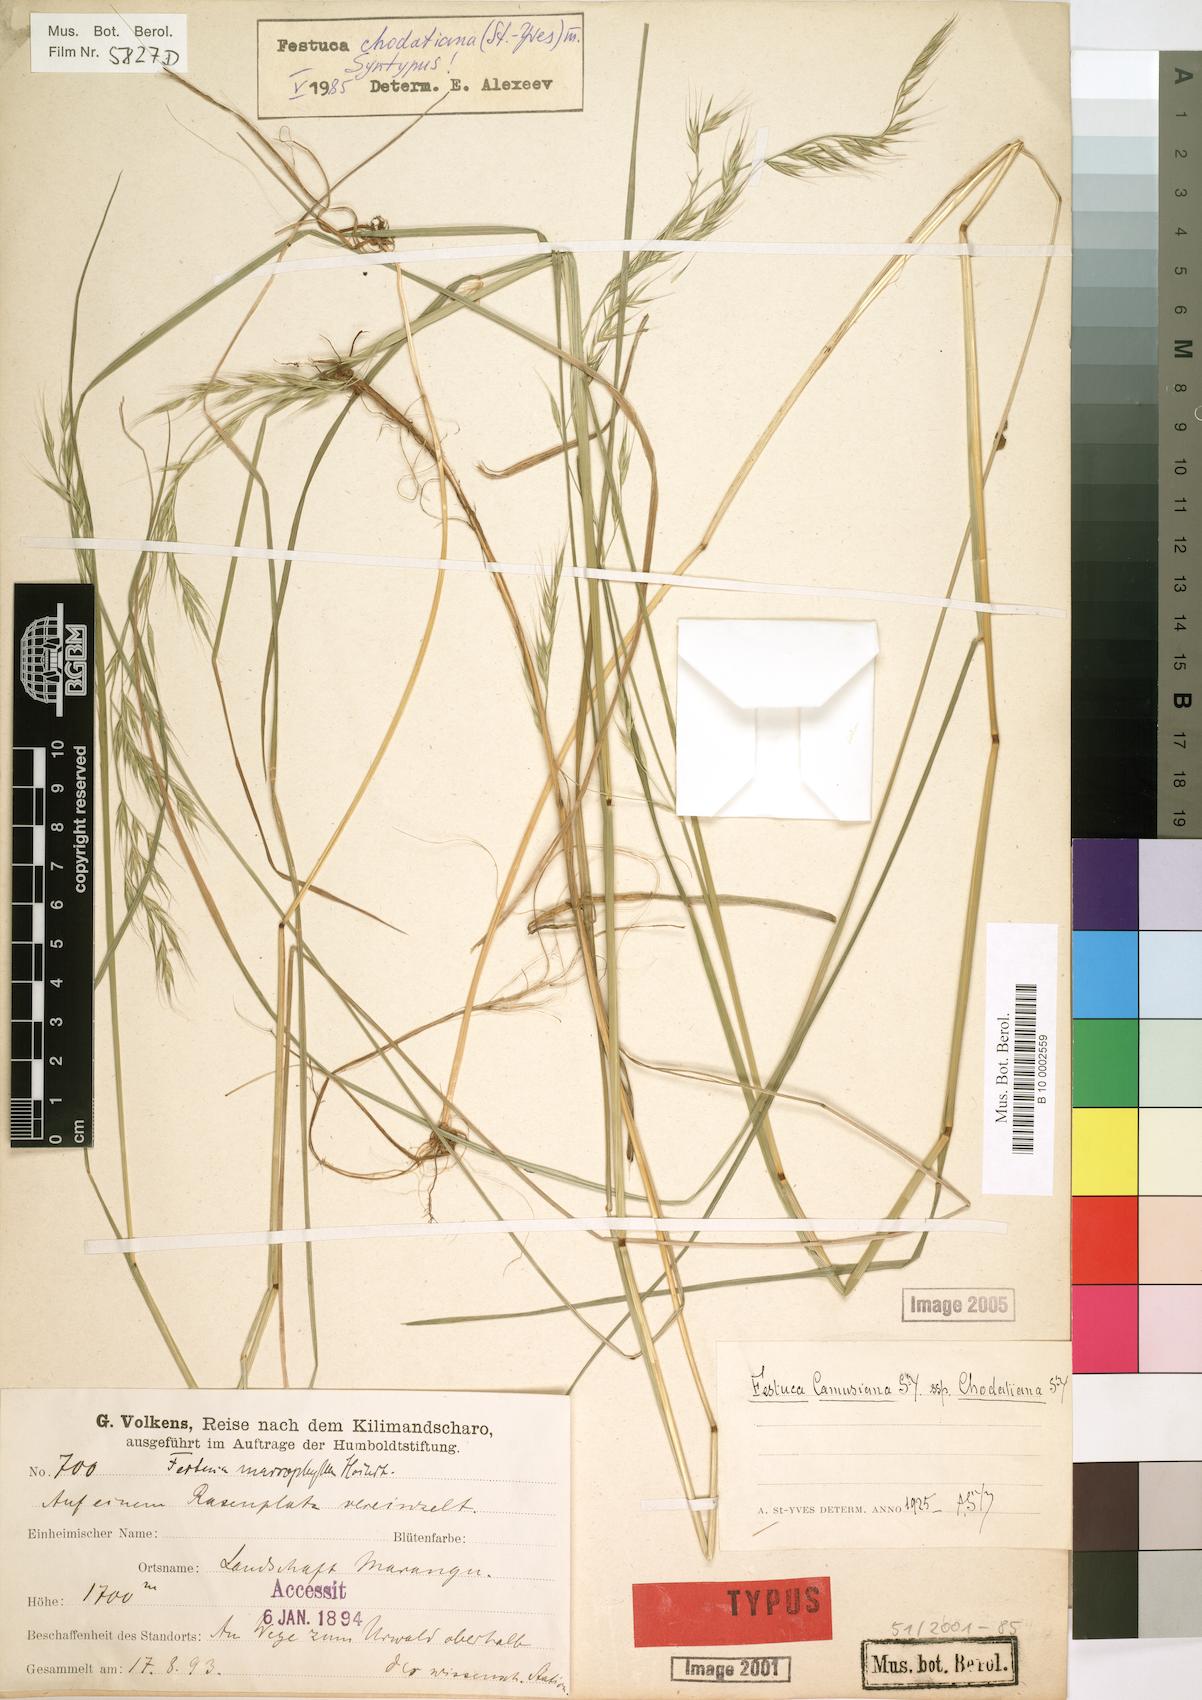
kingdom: Plantae
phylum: Tracheophyta
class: Liliopsida
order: Poales
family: Poaceae
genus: Festuca
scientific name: Festuca chodatiana
